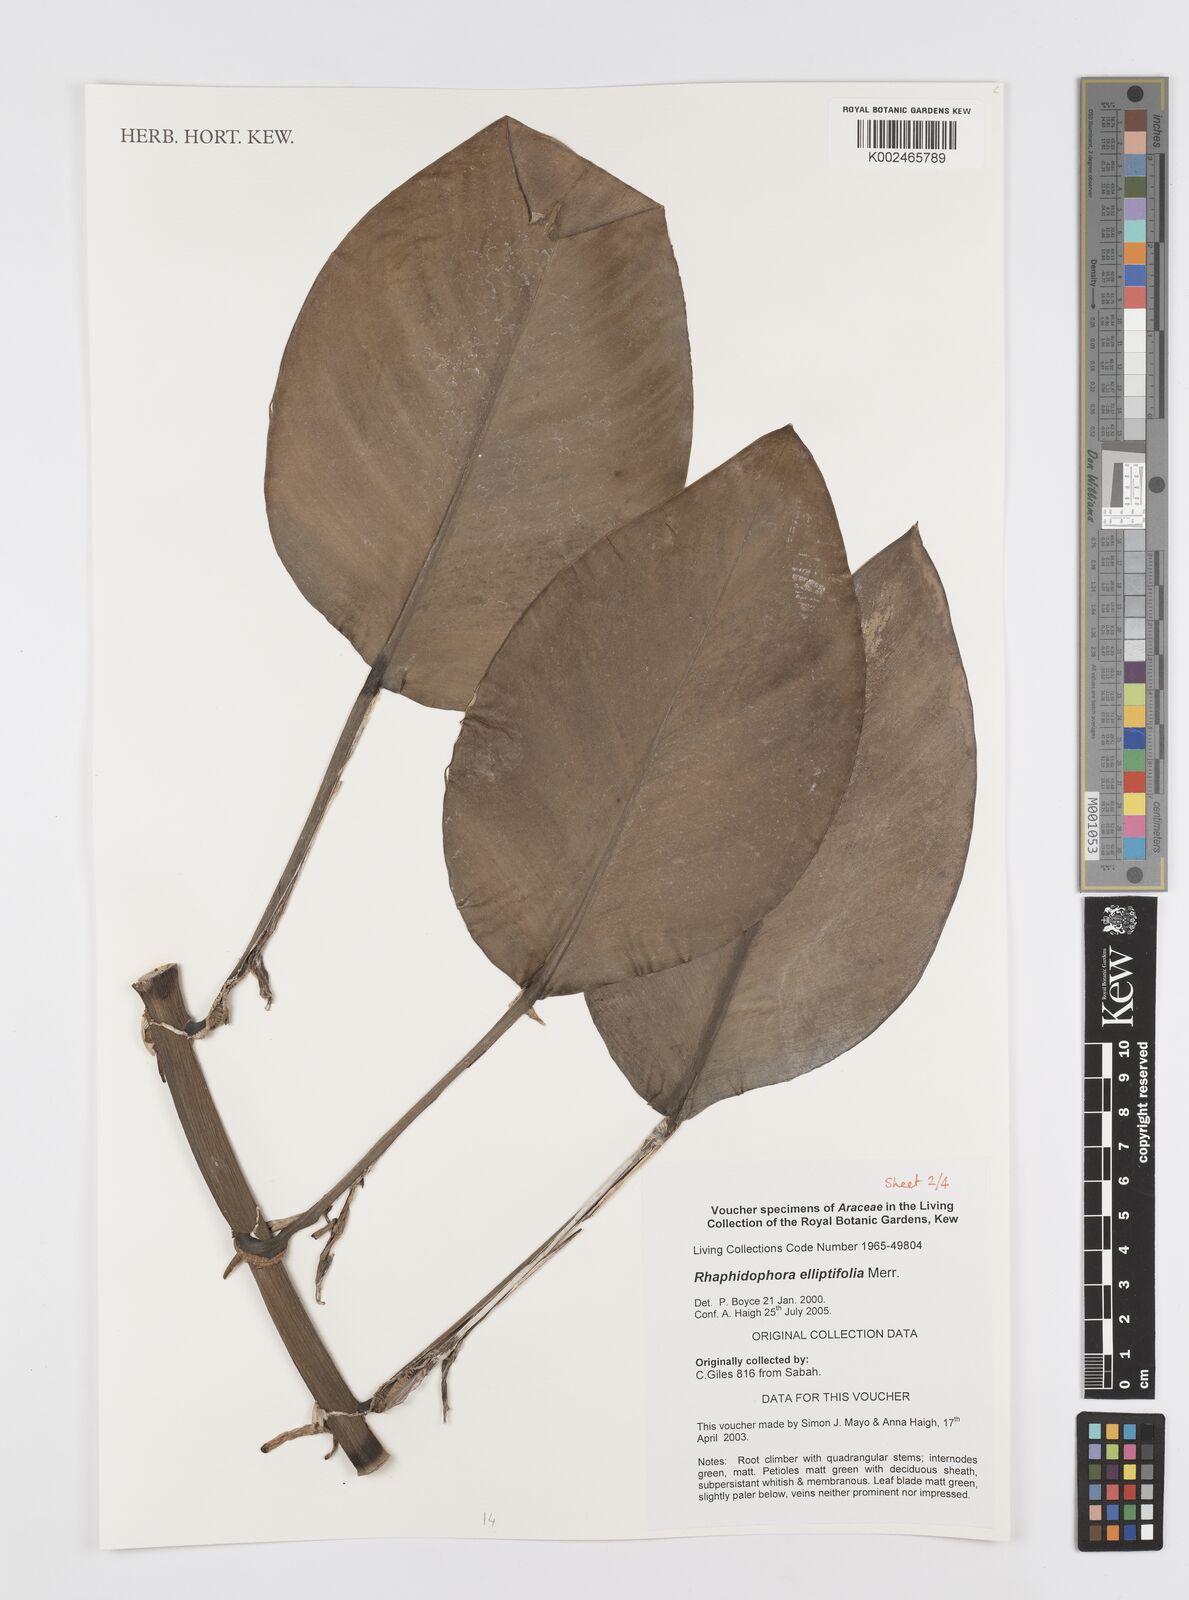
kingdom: Plantae
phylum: Tracheophyta
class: Liliopsida
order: Alismatales
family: Araceae
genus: Rhaphidophora
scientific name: Rhaphidophora elliptifolia
